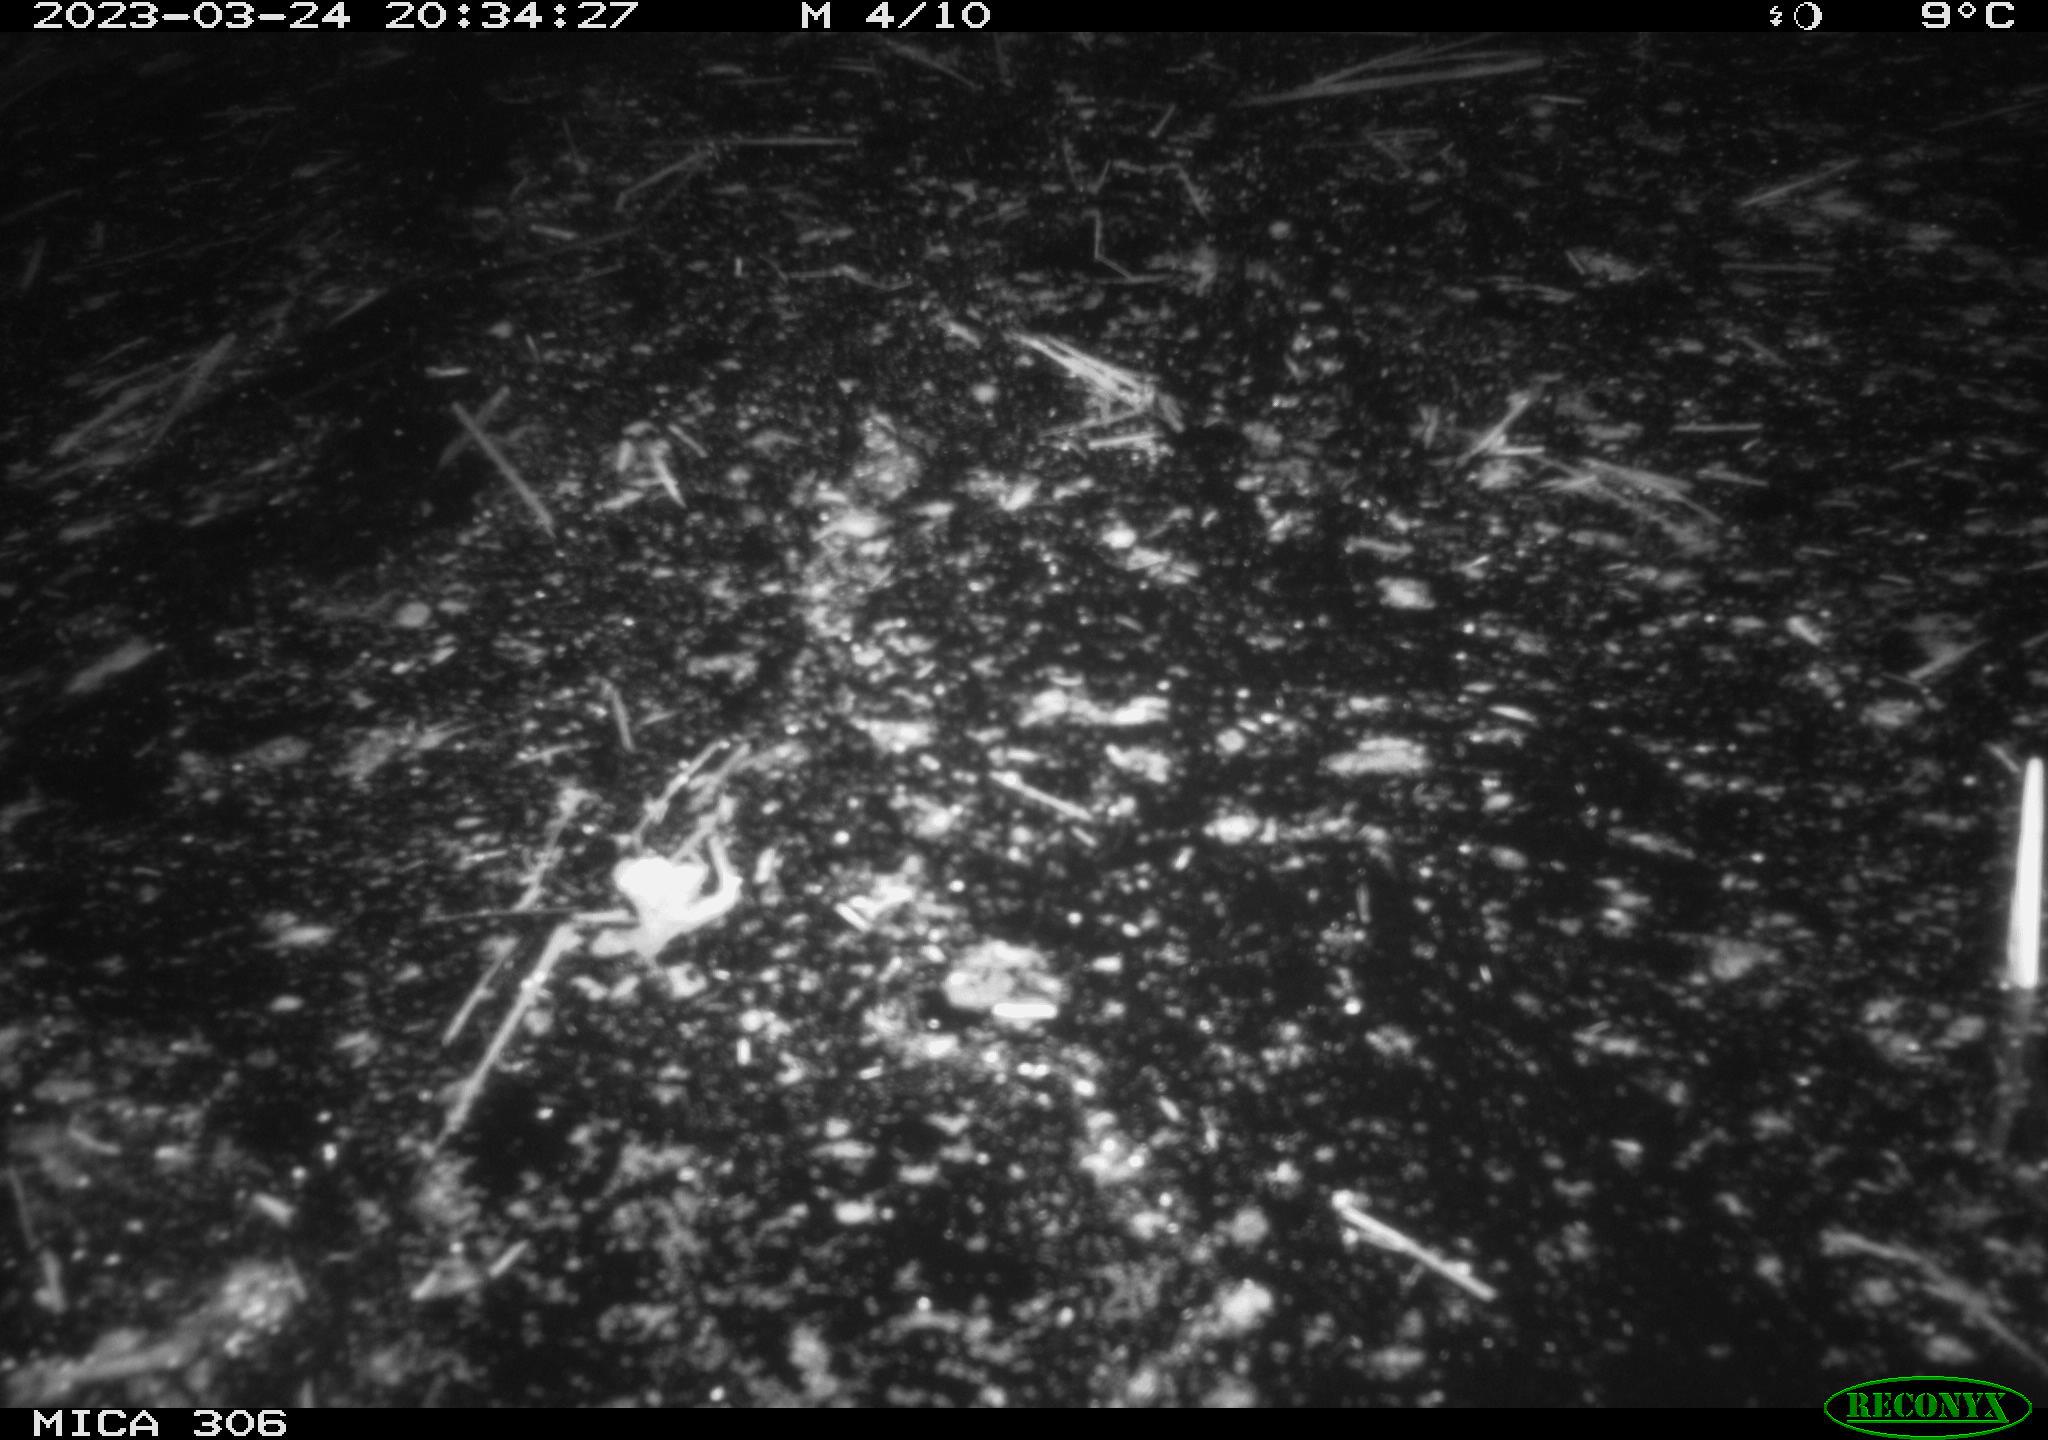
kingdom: Animalia
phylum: Chordata
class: Mammalia
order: Rodentia
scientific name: Rodentia
